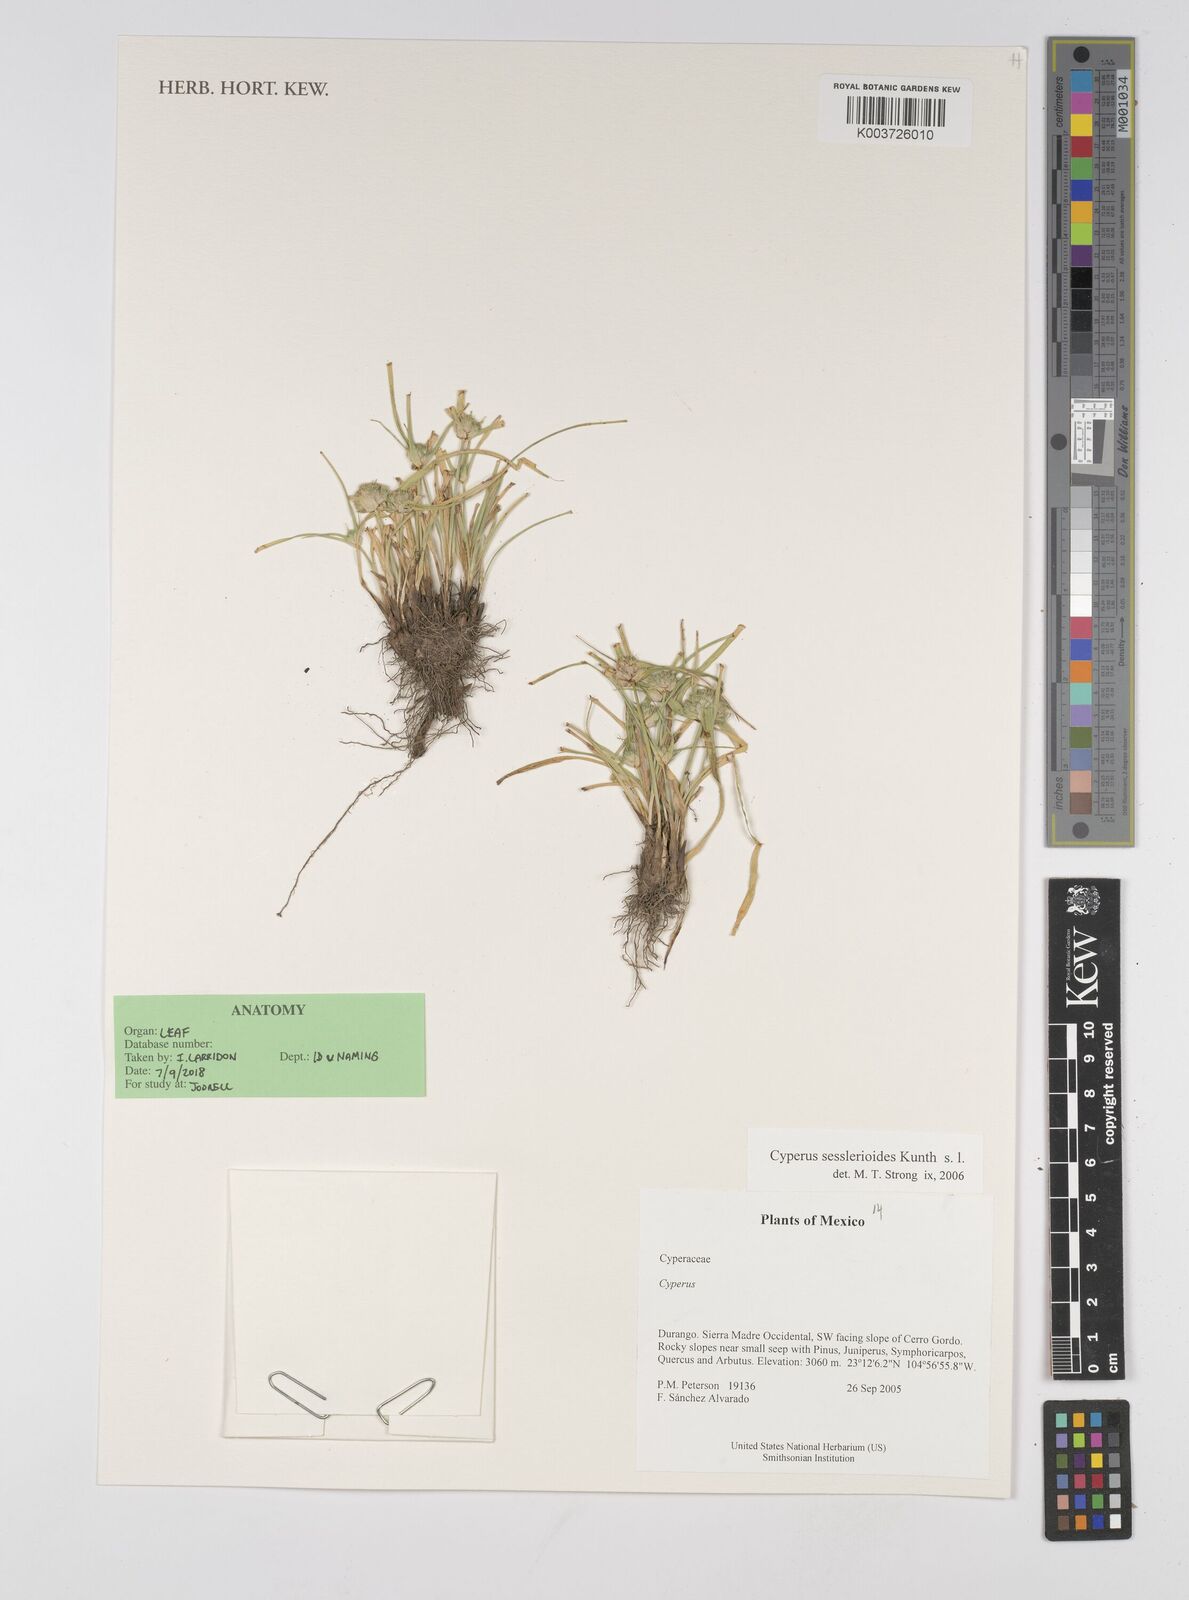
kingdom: Plantae
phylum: Tracheophyta
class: Liliopsida
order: Poales
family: Cyperaceae
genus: Cyperus
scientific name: Cyperus seslerioides
